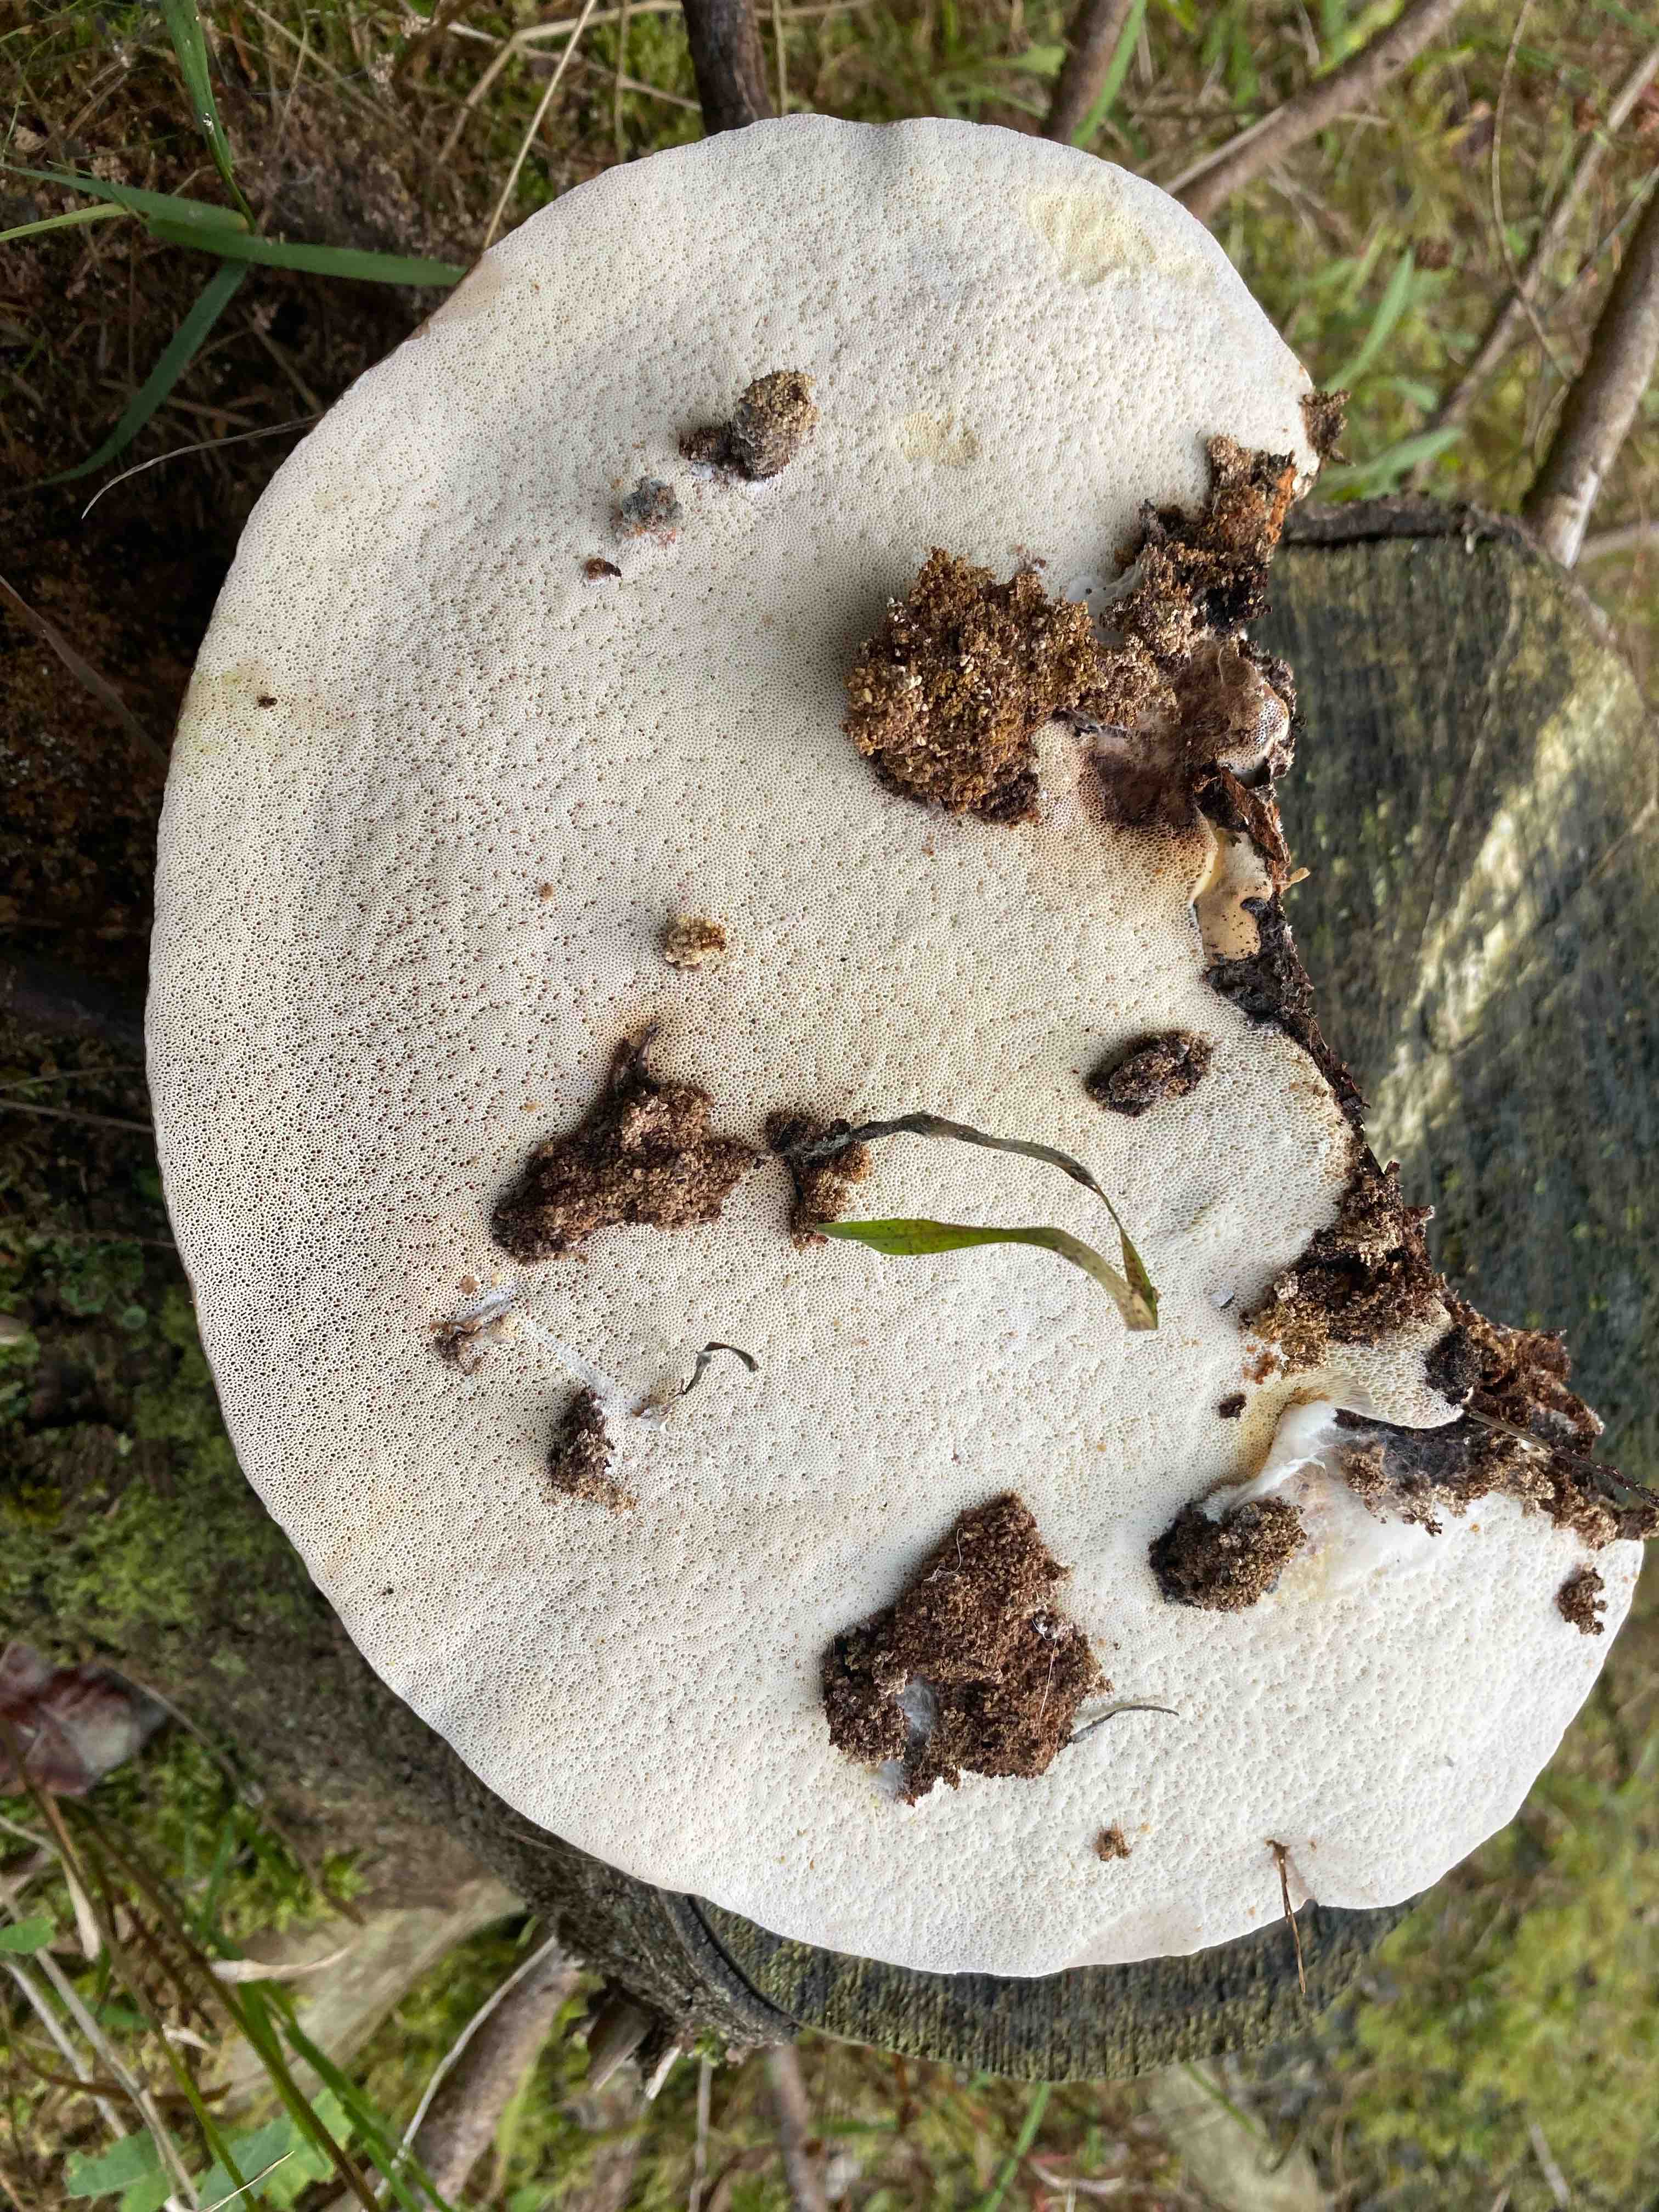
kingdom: Fungi
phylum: Basidiomycota
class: Agaricomycetes
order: Polyporales
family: Fomitopsidaceae
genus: Fomitopsis
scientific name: Fomitopsis pinicola
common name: randbæltet hovporesvamp
